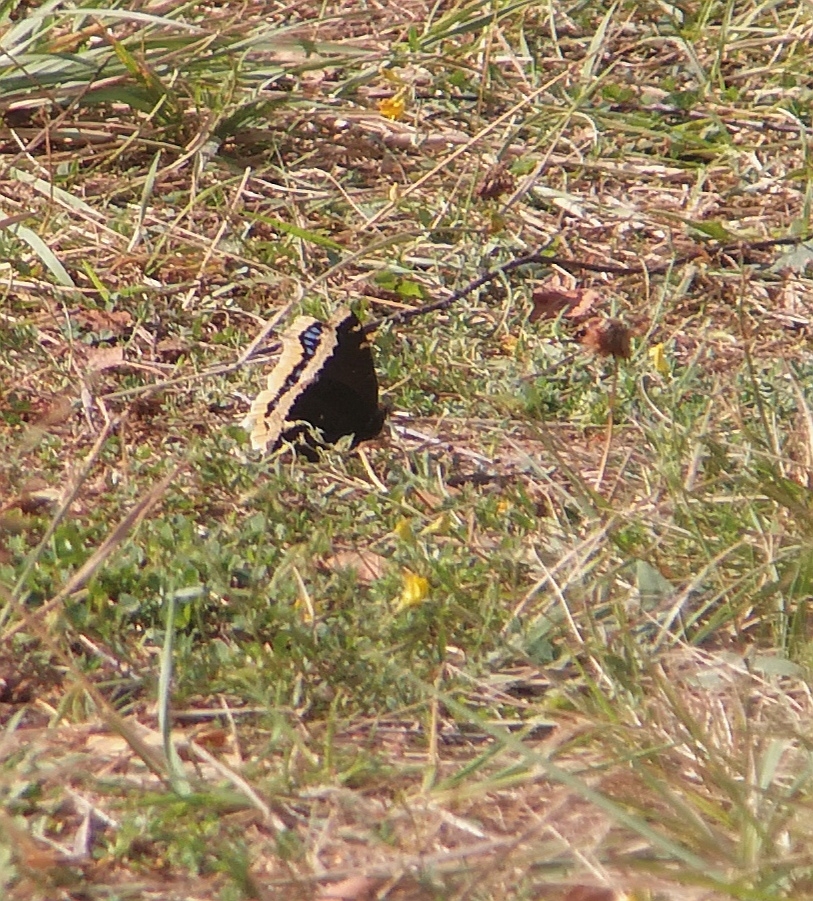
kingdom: Animalia
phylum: Arthropoda
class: Insecta
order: Lepidoptera
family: Nymphalidae
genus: Nymphalis
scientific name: Nymphalis antiopa
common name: Sørgekåbe
